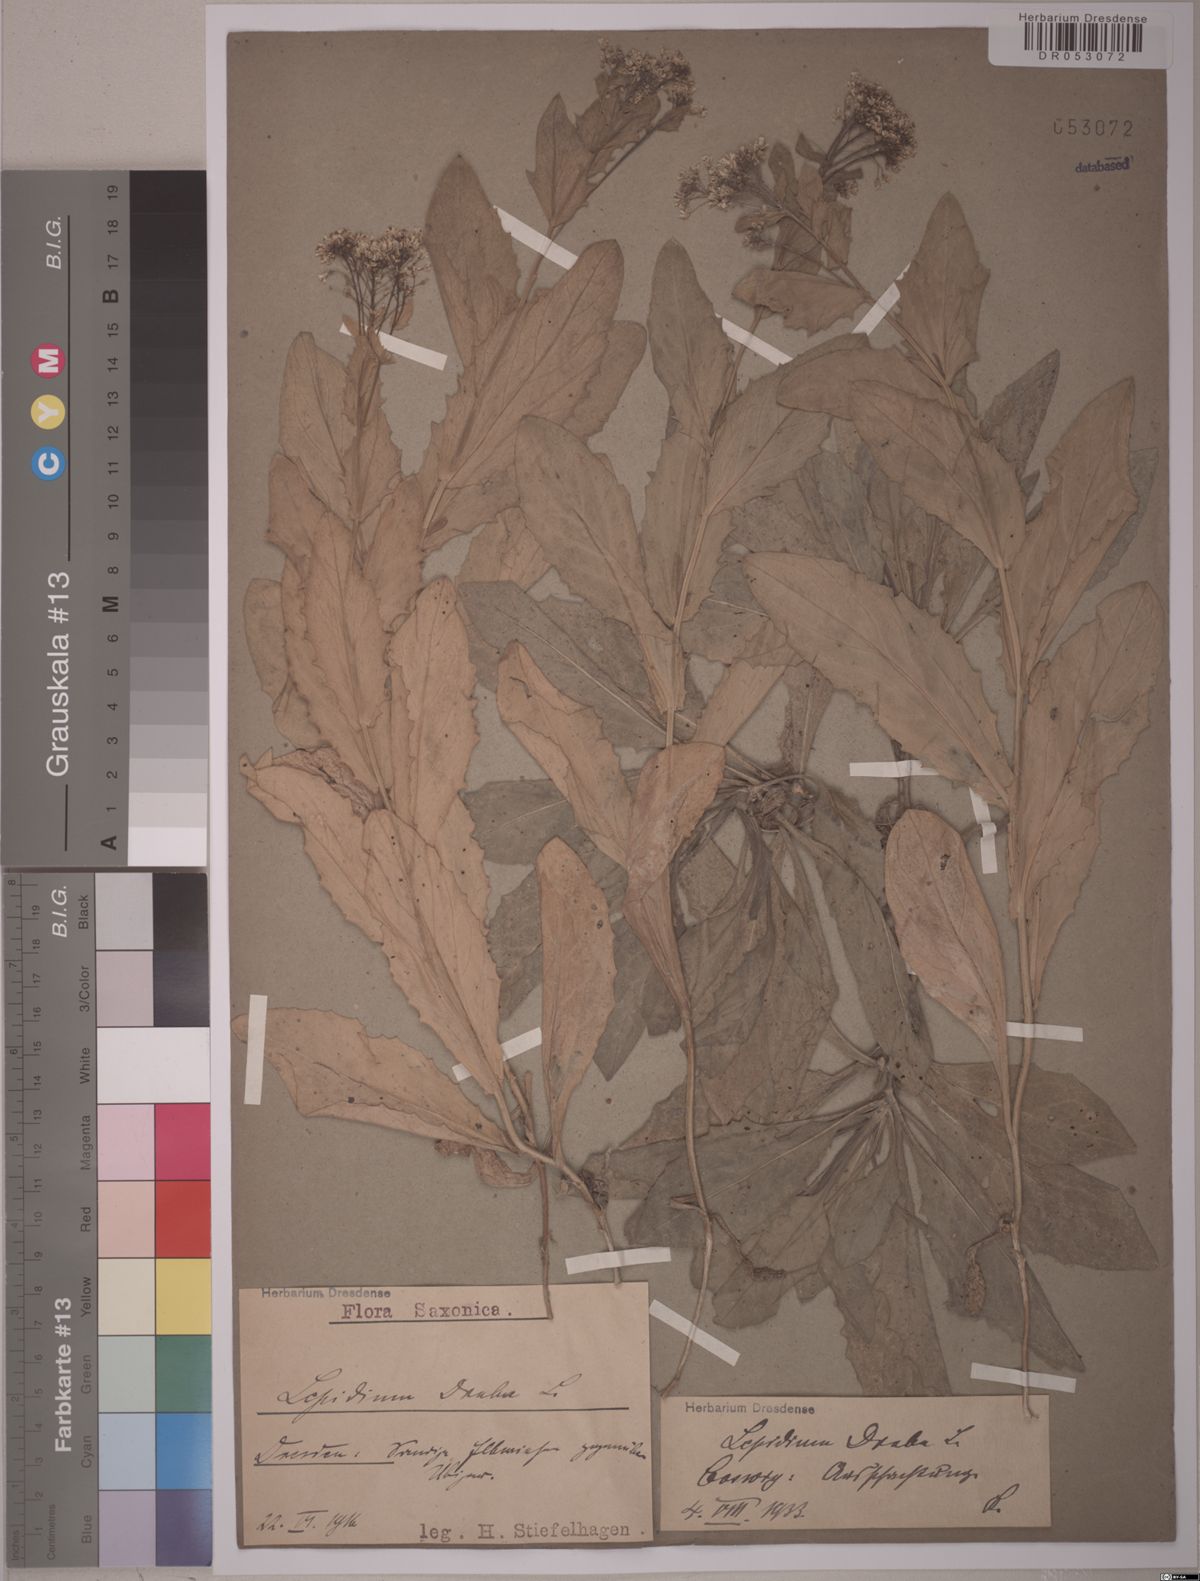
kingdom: Plantae
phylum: Tracheophyta
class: Magnoliopsida
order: Brassicales
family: Brassicaceae
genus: Lepidium
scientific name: Lepidium draba
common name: Hoary cress
